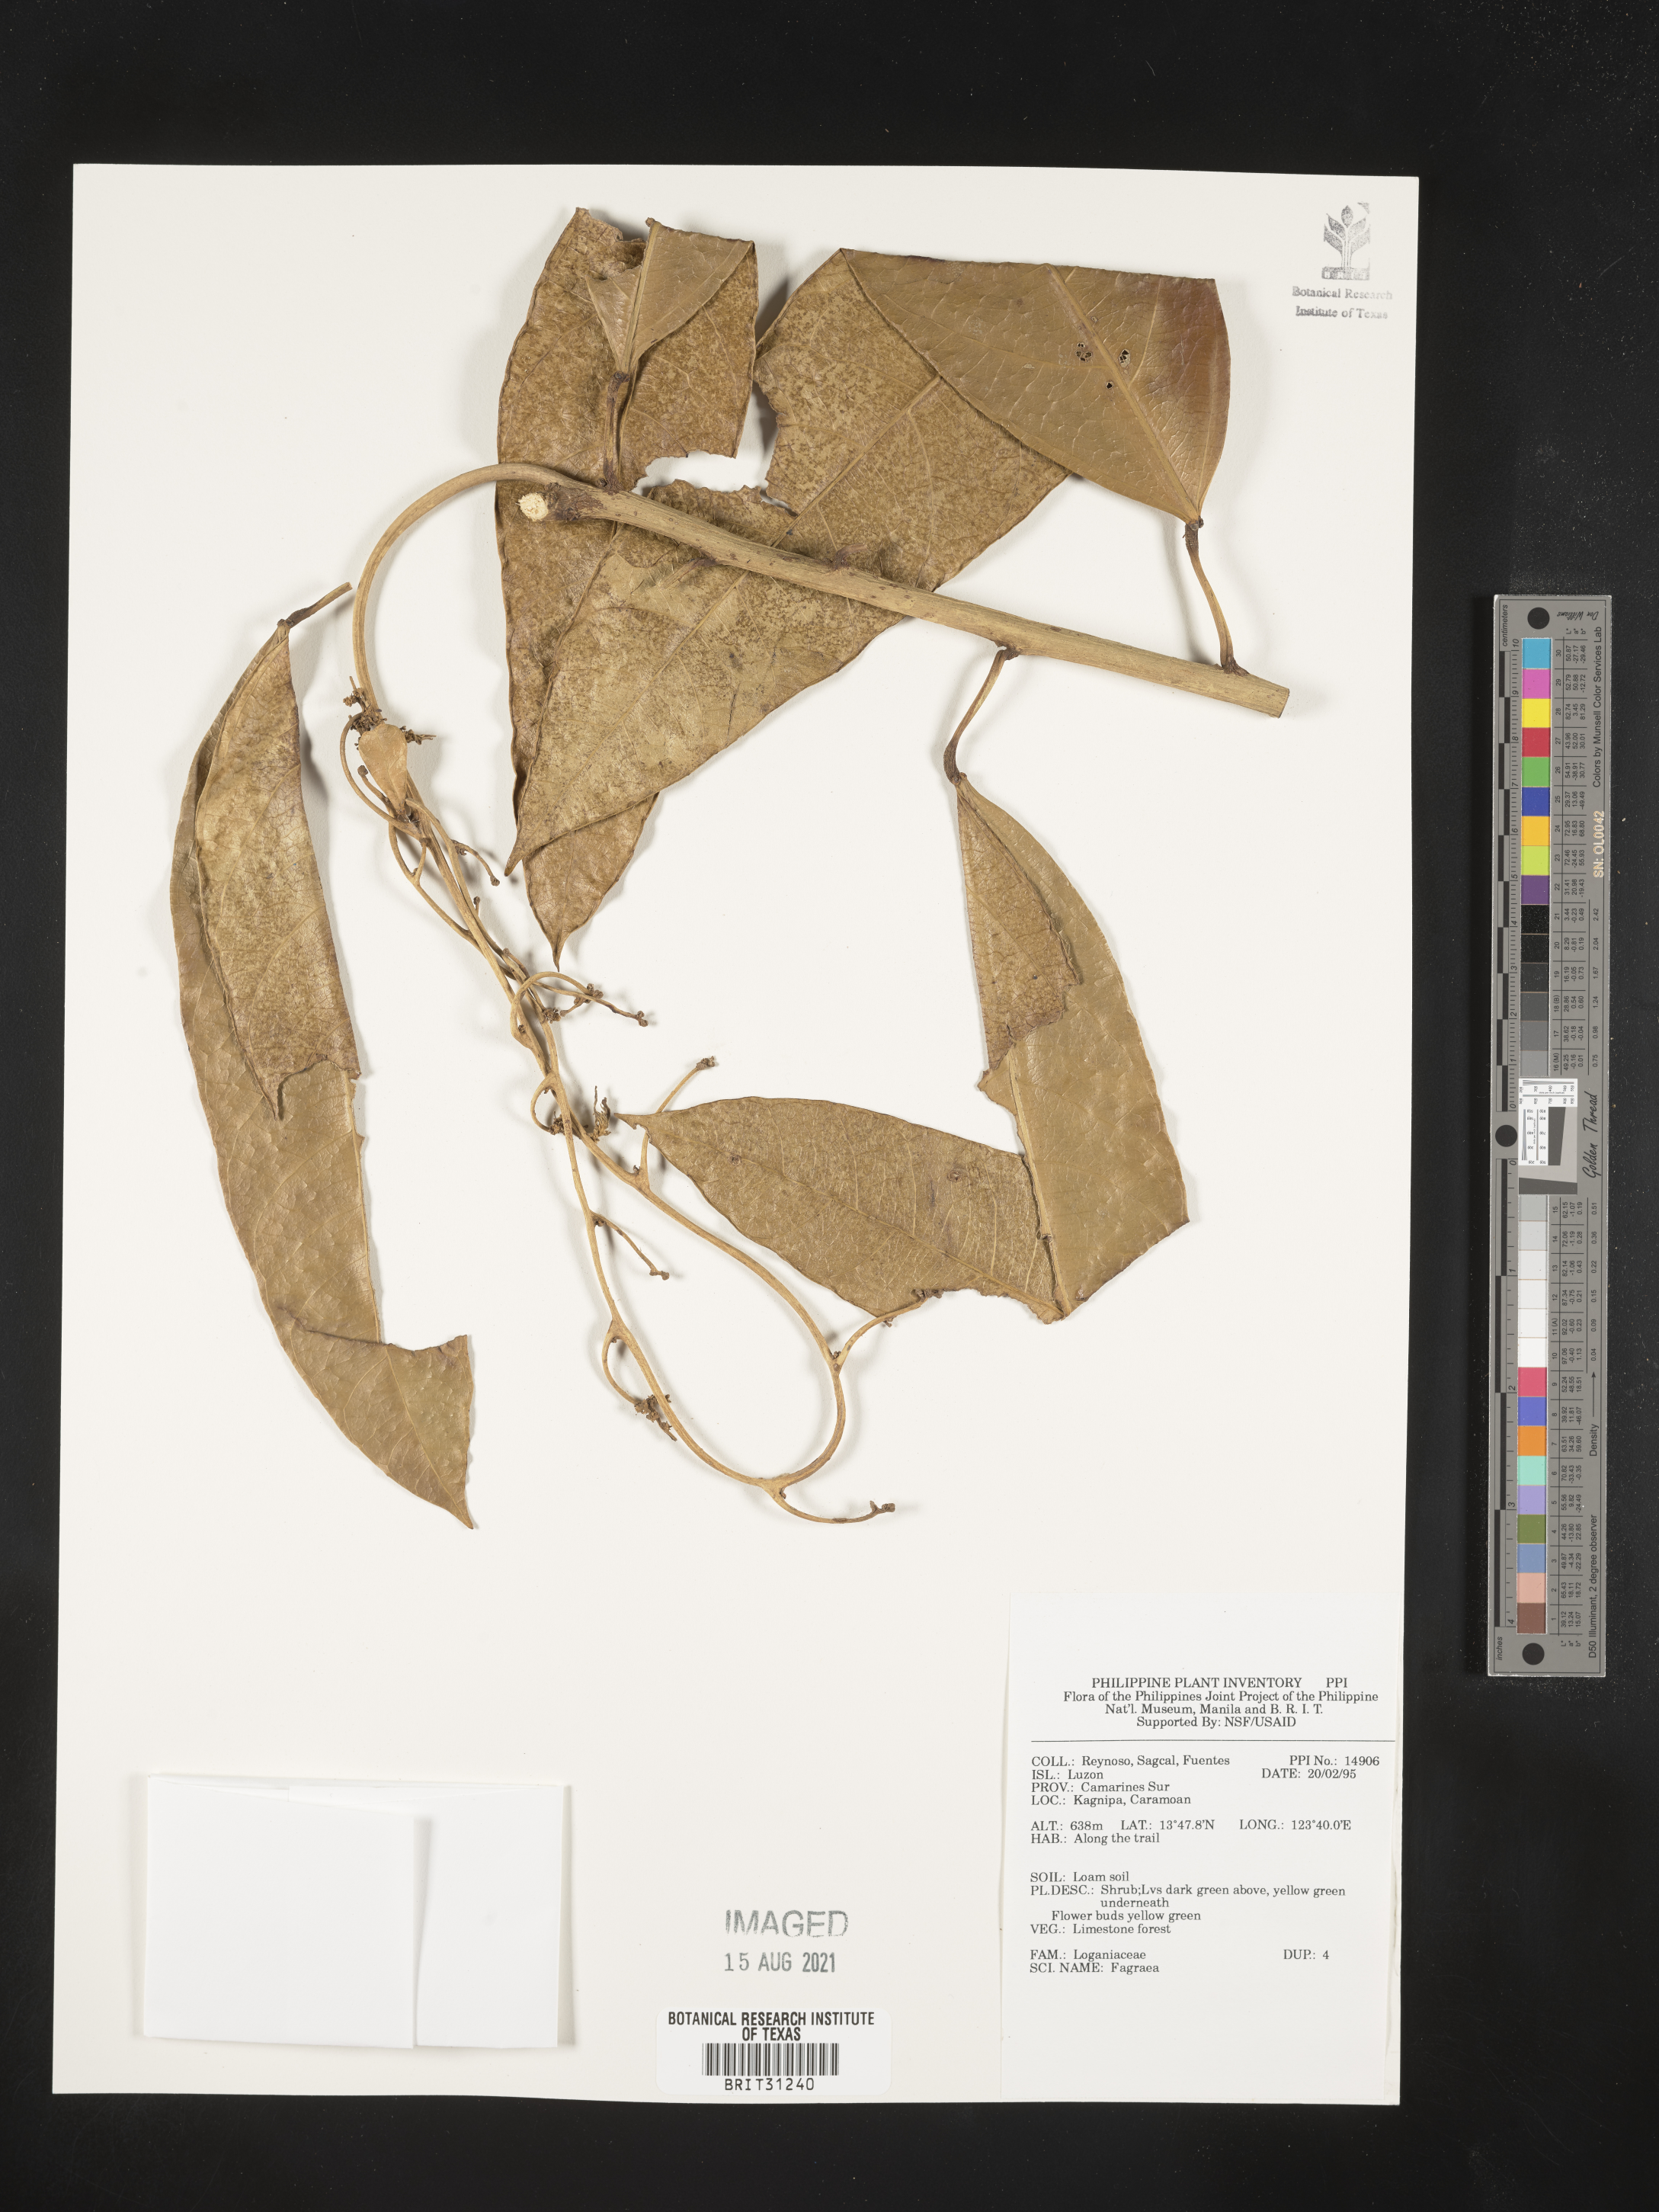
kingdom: Plantae
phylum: Tracheophyta
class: Magnoliopsida
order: Gentianales
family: Gentianaceae
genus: Fagraea
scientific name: Fagraea
